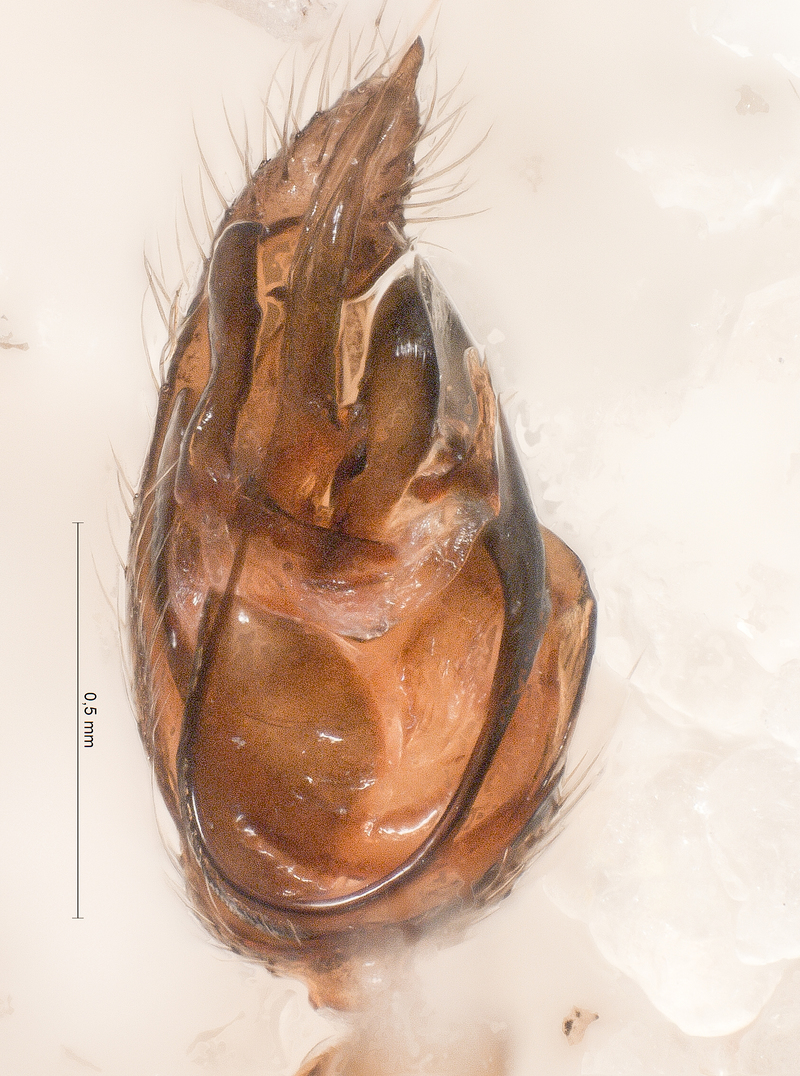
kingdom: Animalia
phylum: Arthropoda
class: Arachnida
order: Araneae
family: Theridiidae
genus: Asagena
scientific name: Asagena phalerata
